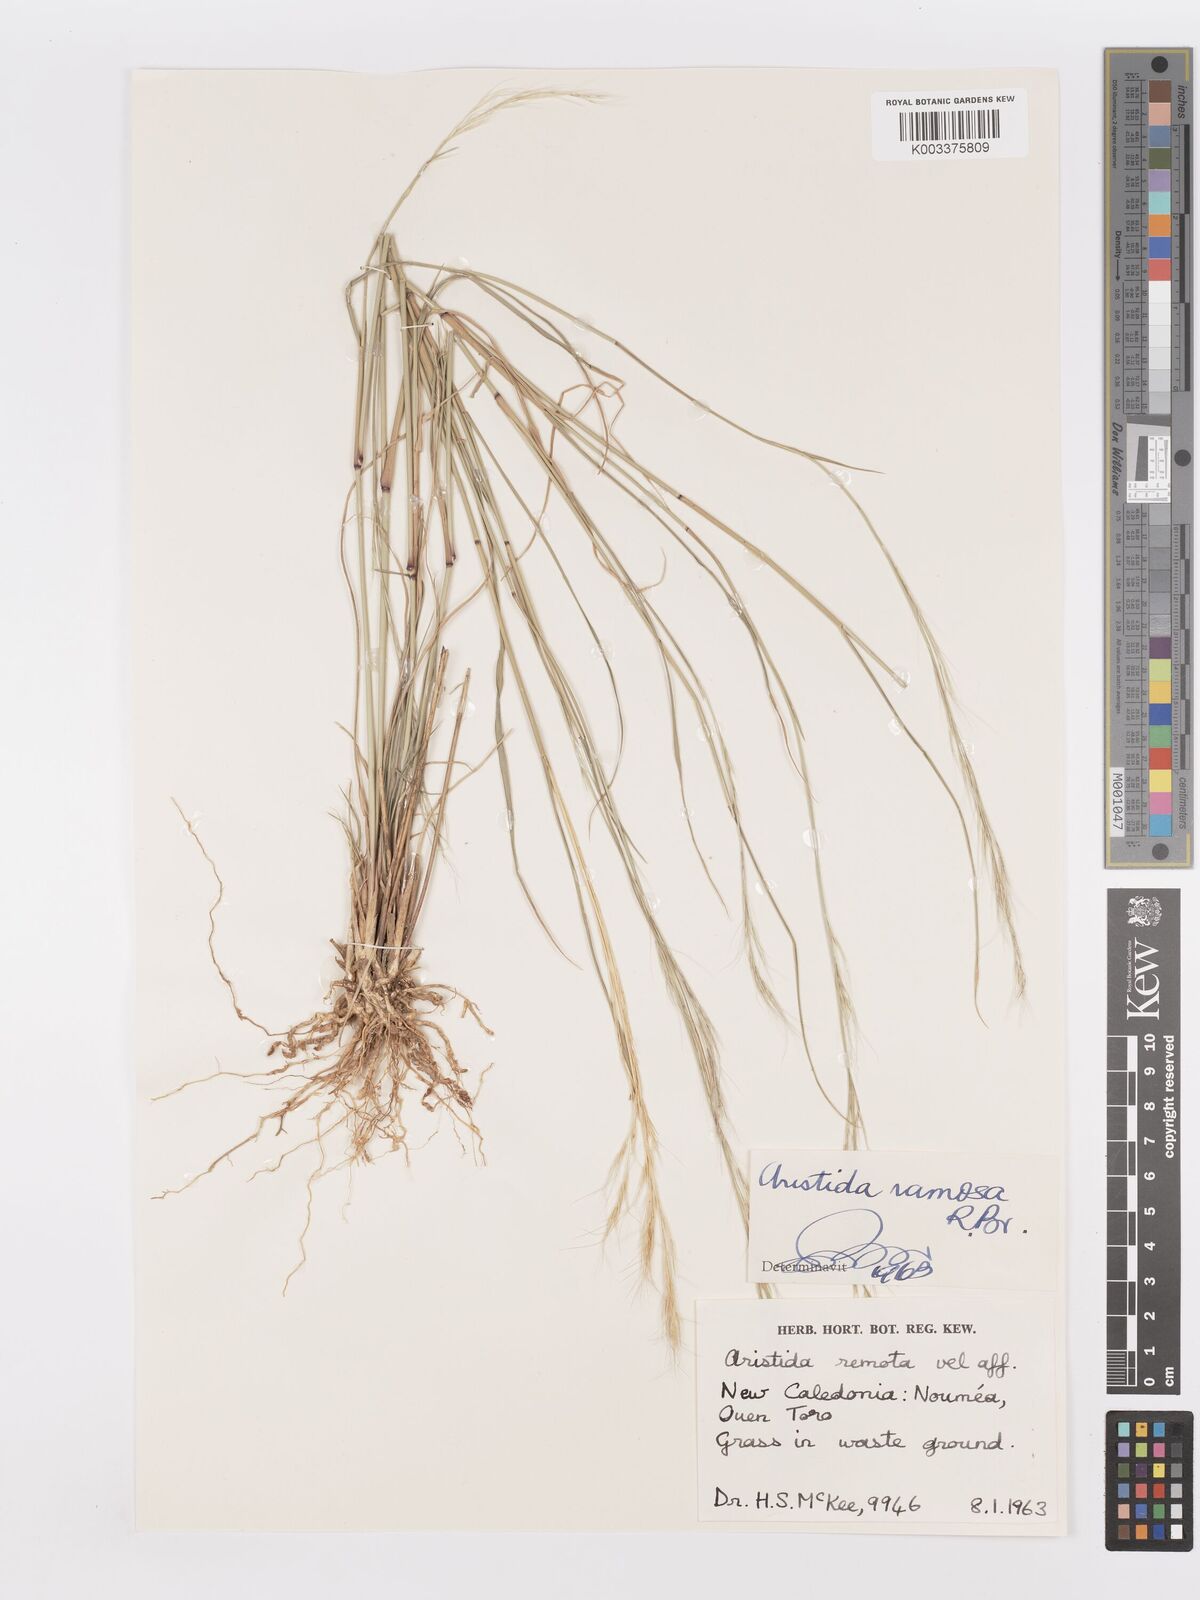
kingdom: Plantae
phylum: Tracheophyta
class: Liliopsida
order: Poales
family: Poaceae
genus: Aristida
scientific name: Aristida ramosa
